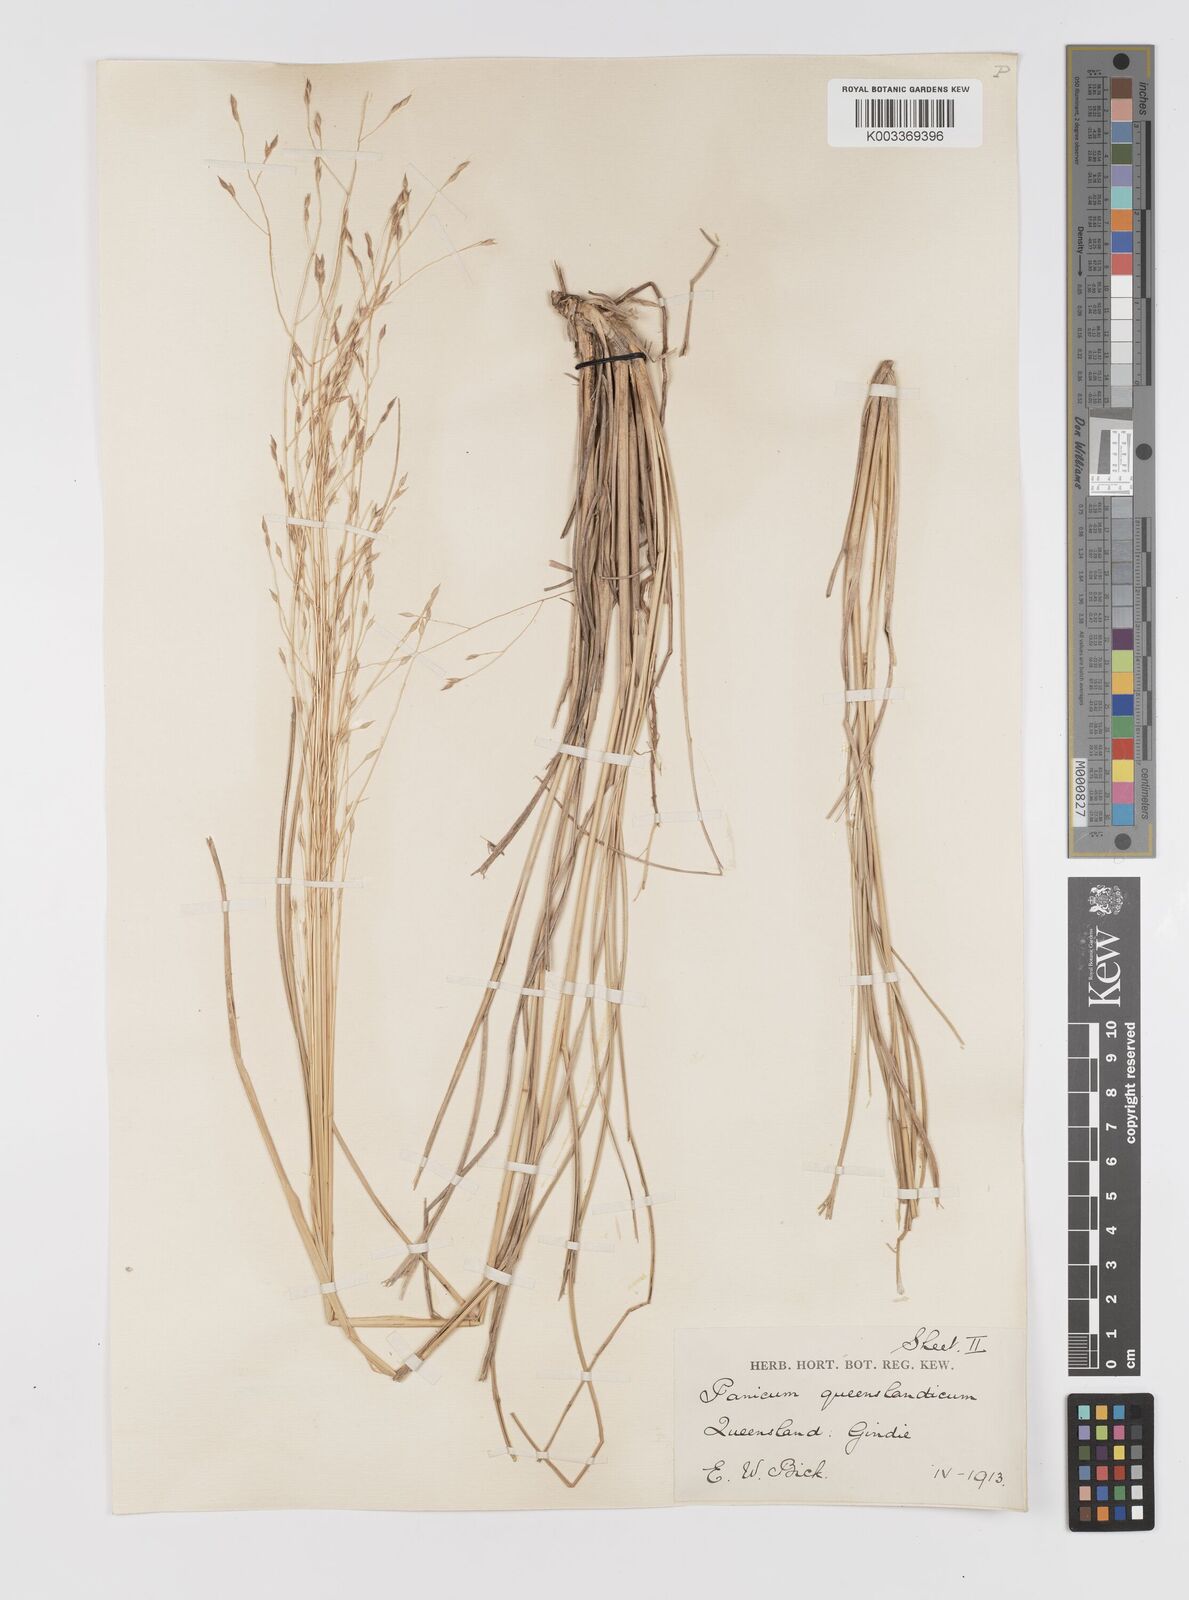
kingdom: Plantae
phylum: Tracheophyta
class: Liliopsida
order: Poales
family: Poaceae
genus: Panicum
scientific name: Panicum queenslandicum
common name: Yabila grass
